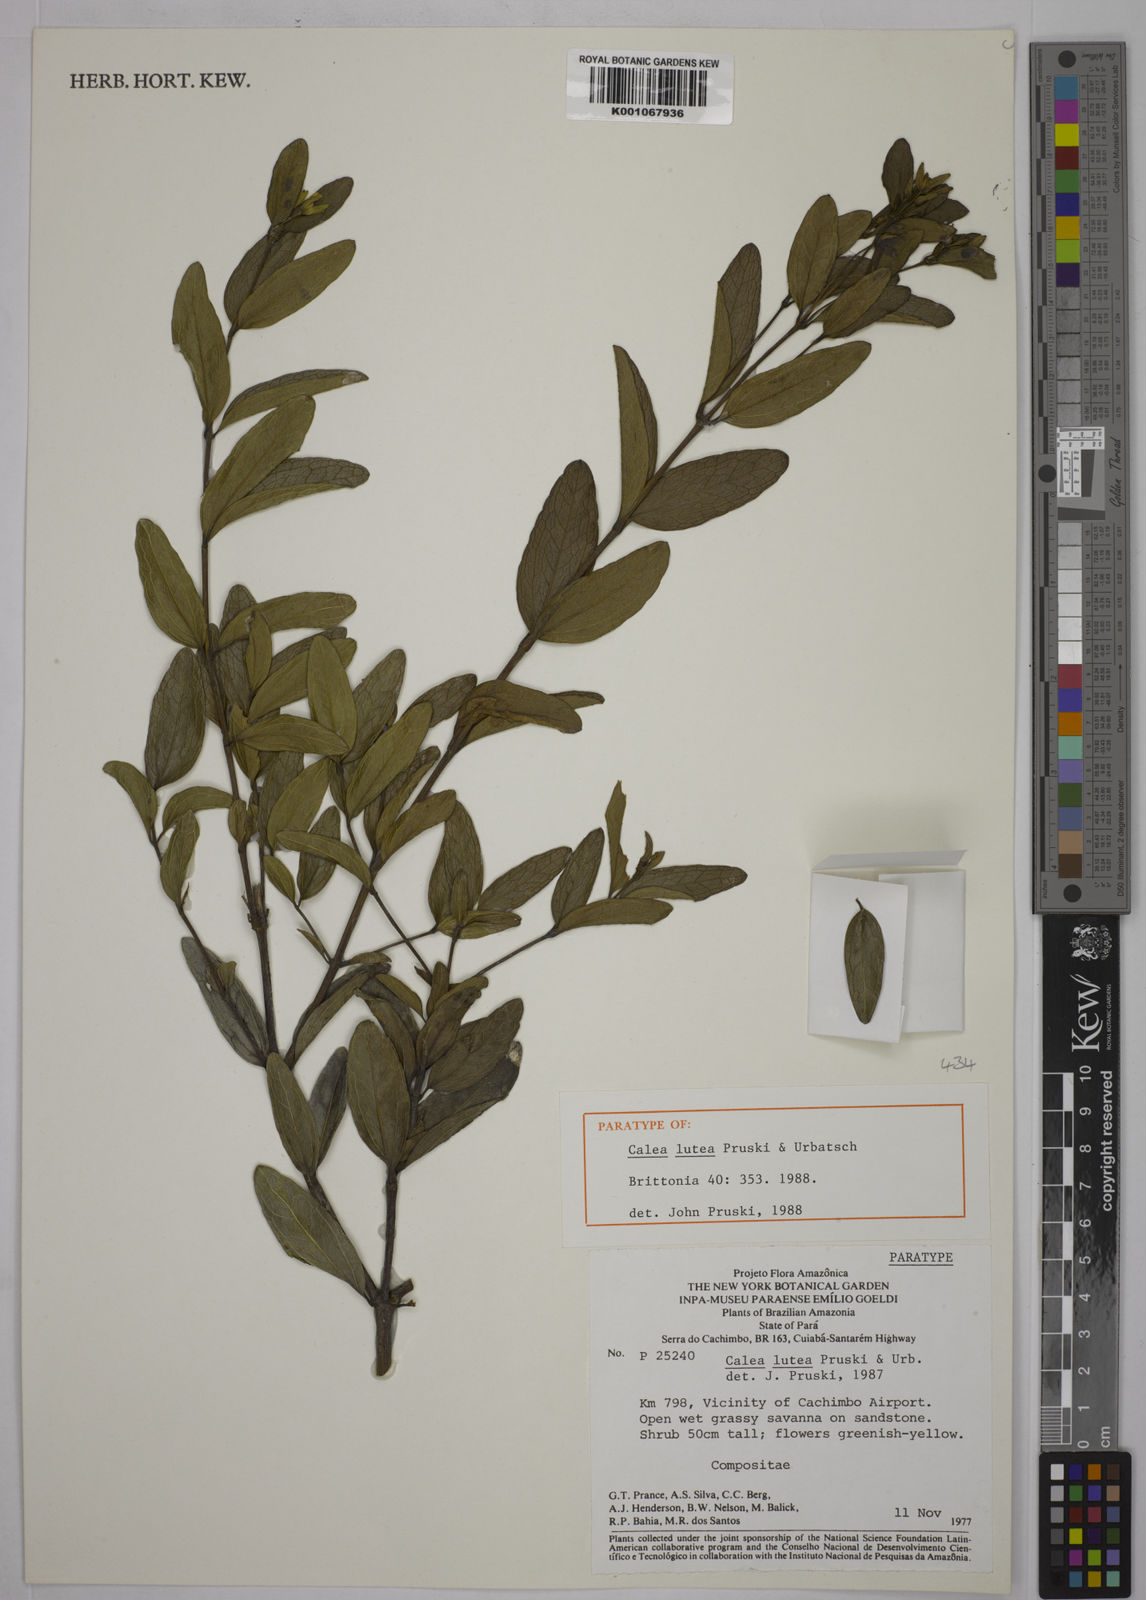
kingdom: Plantae
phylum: Tracheophyta
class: Magnoliopsida
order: Asterales
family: Asteraceae
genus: Calea
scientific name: Calea lutea
